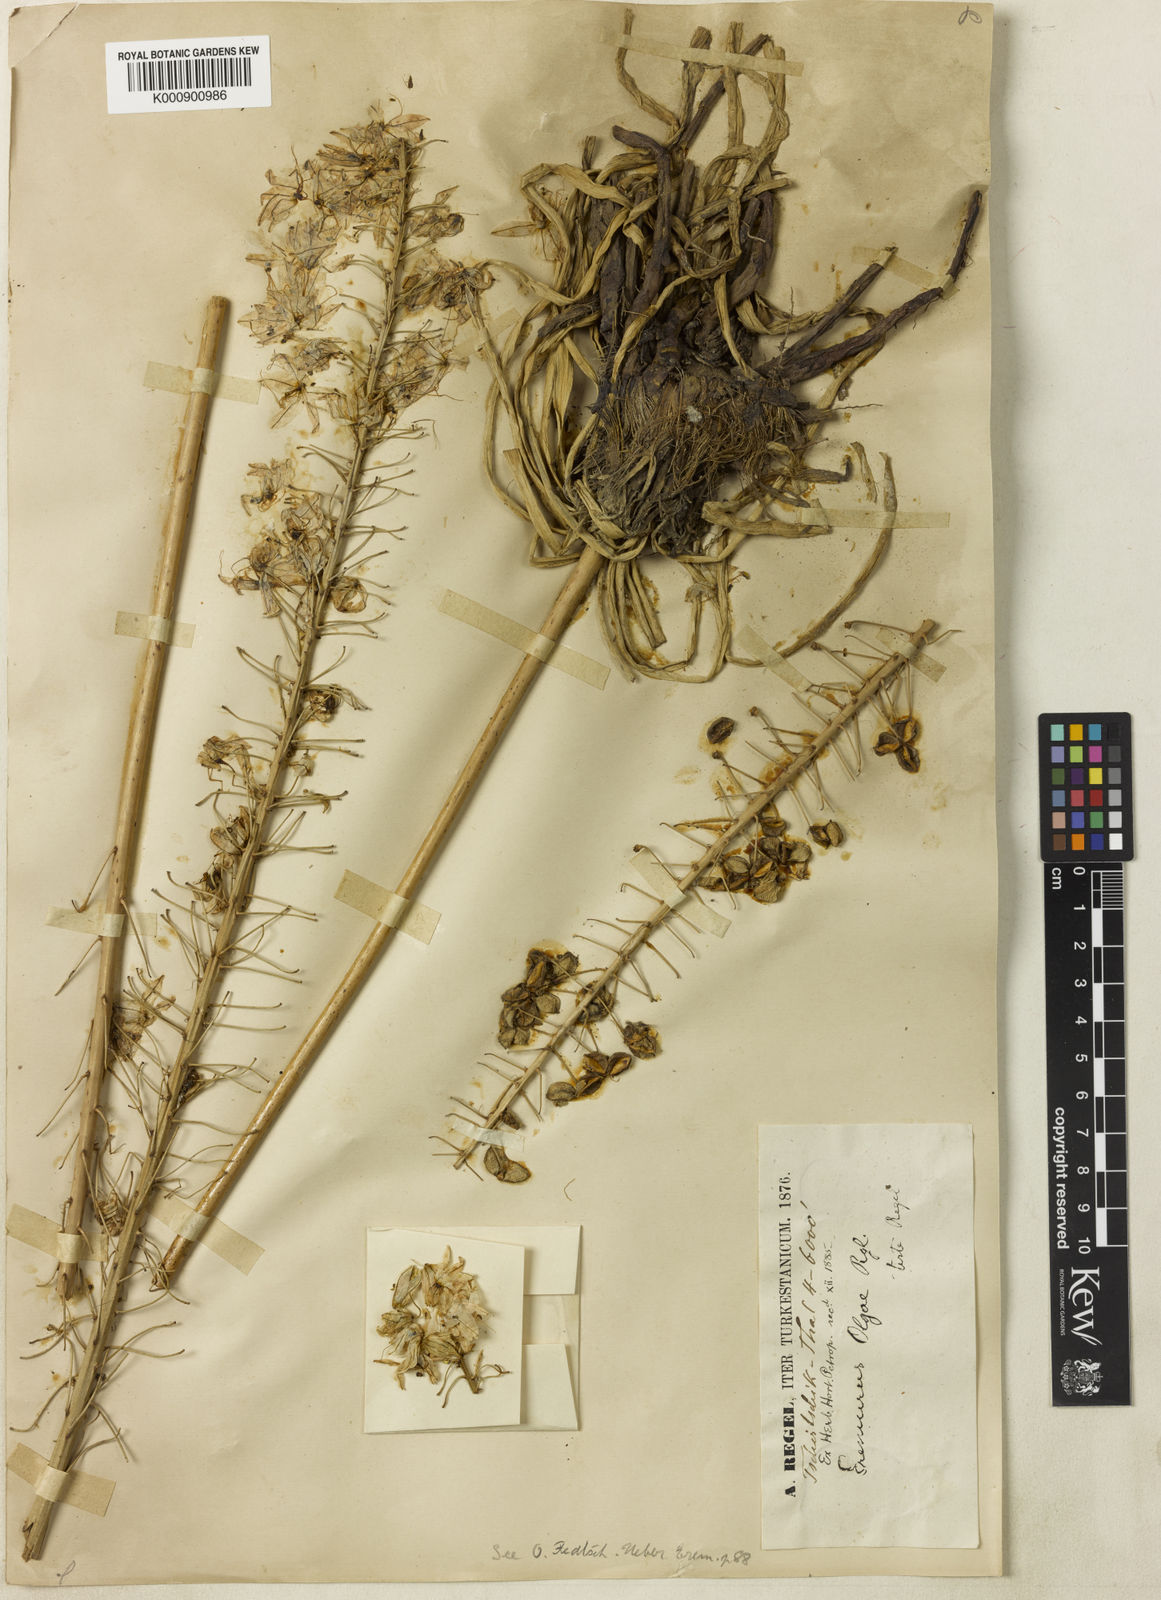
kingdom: Plantae
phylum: Tracheophyta
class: Liliopsida
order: Asparagales
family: Asphodelaceae
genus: Eremurus
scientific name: Eremurus olgae
